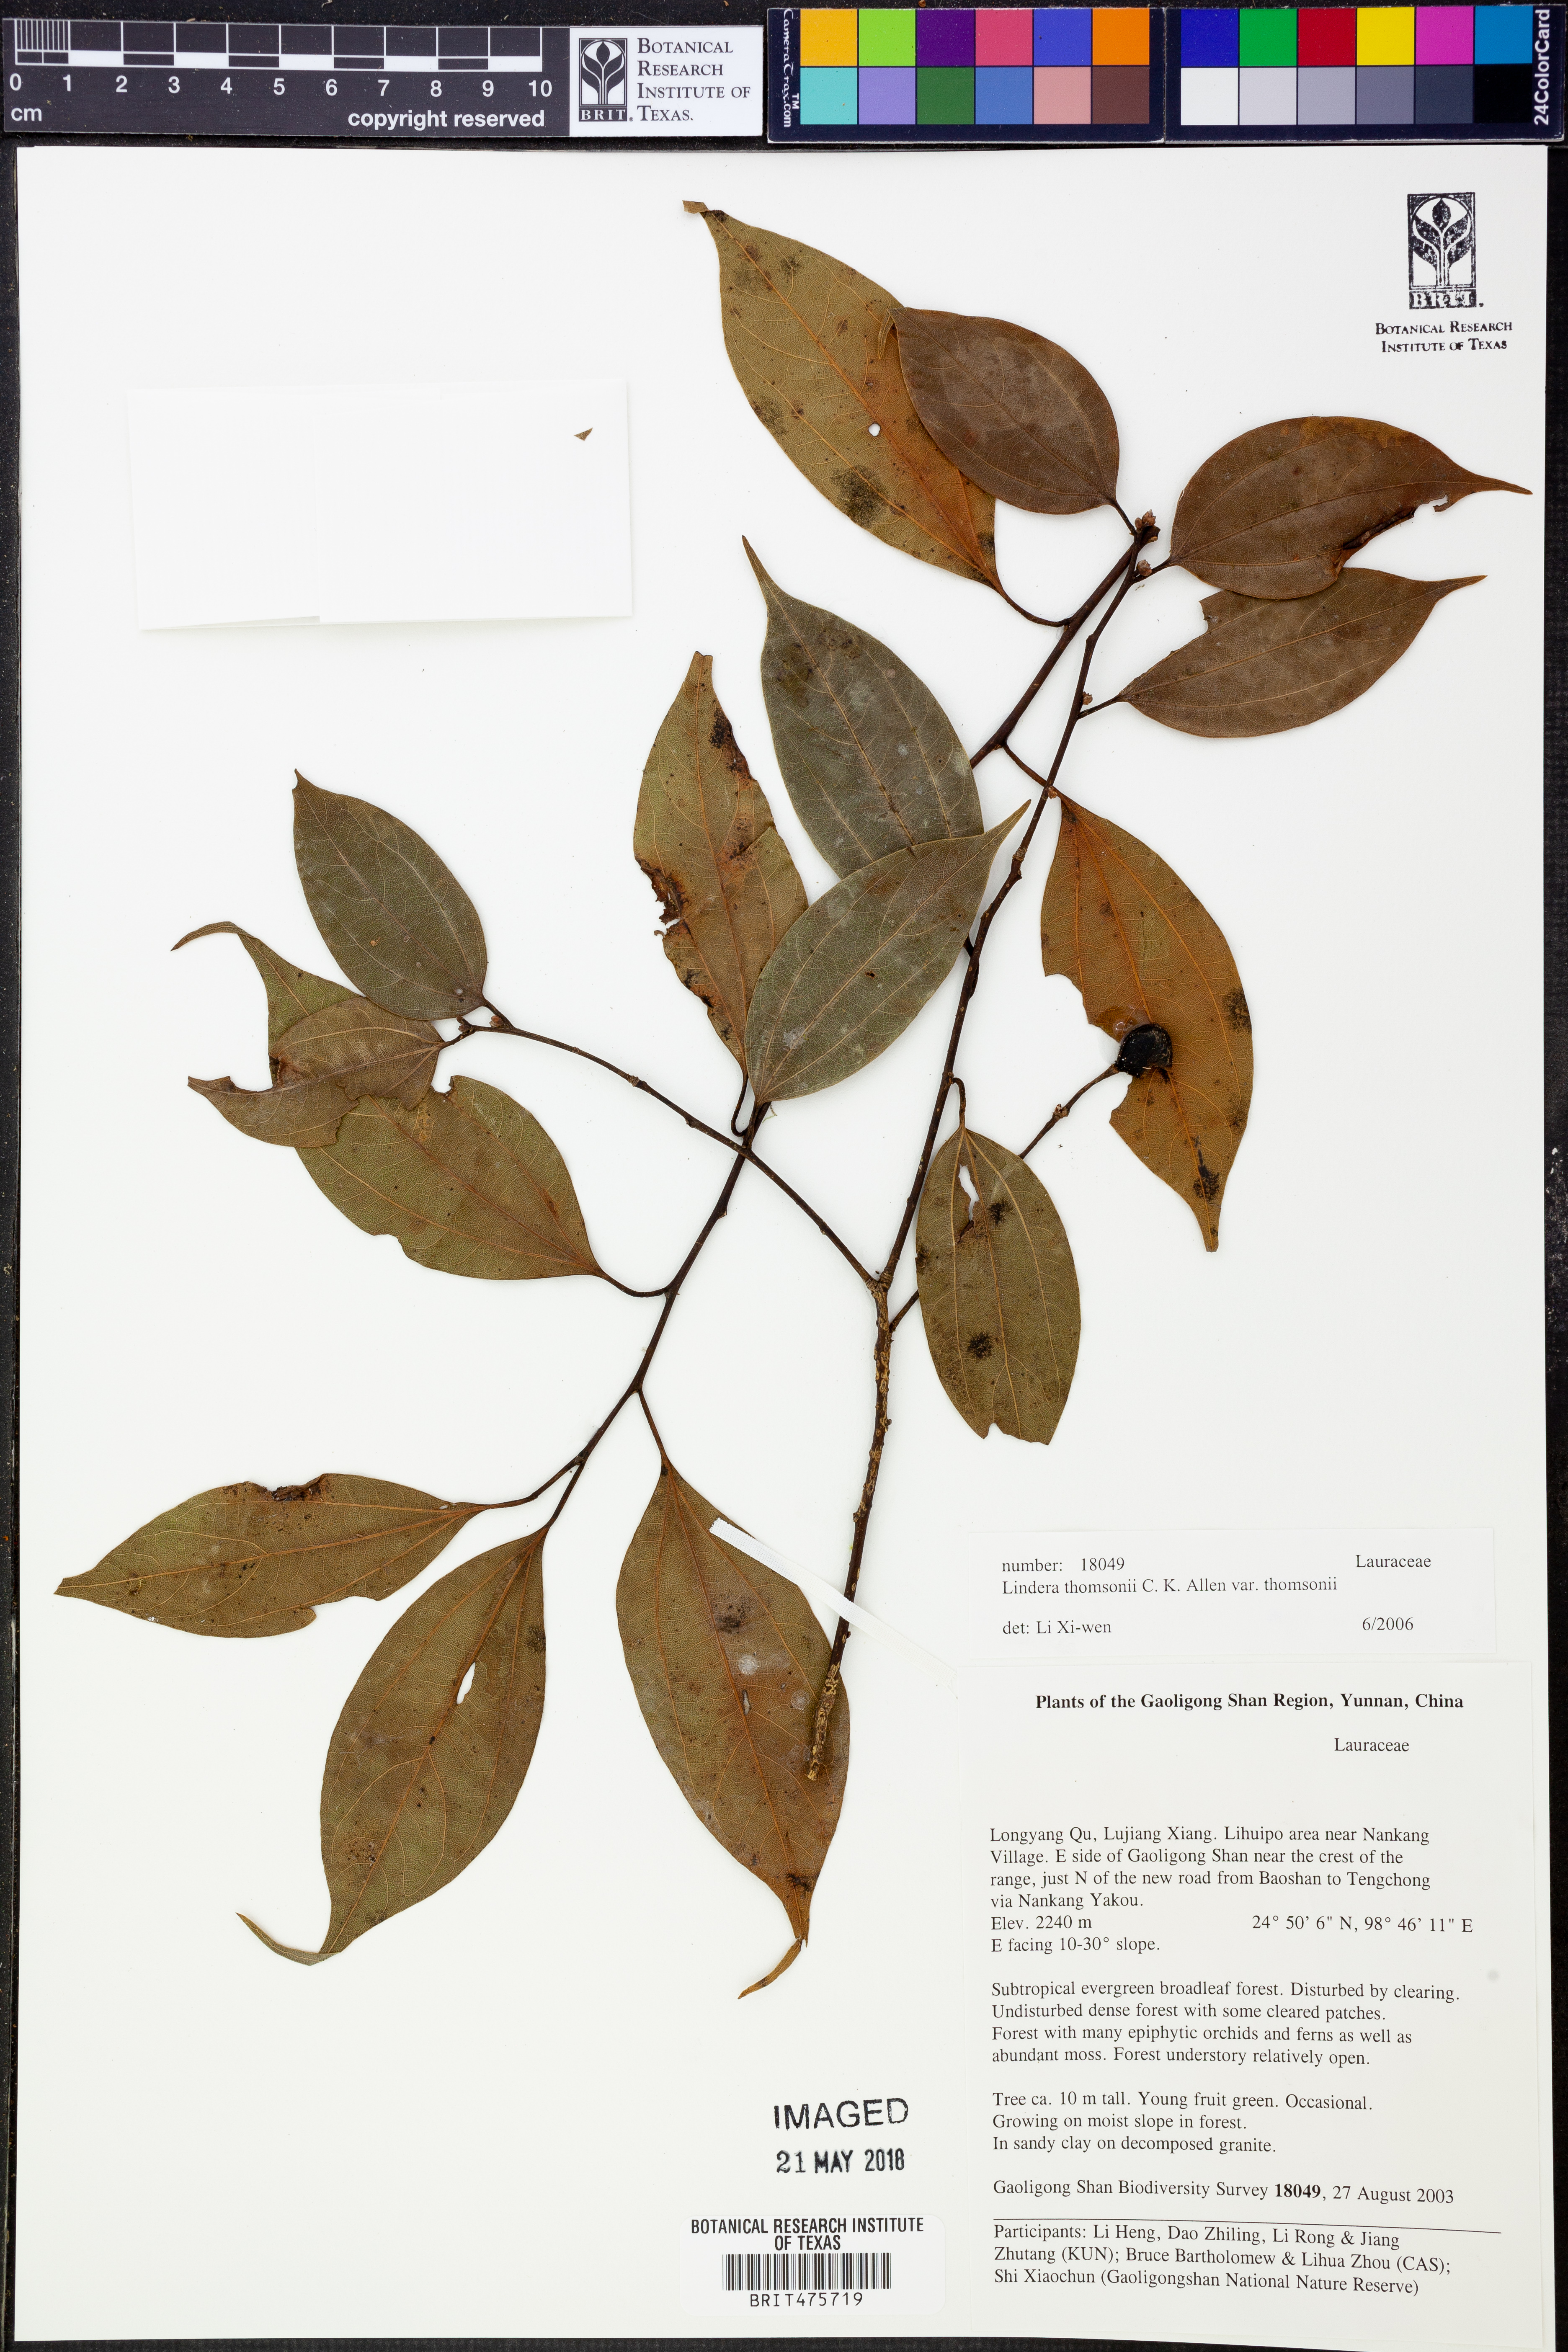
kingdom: Plantae
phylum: Tracheophyta
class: Magnoliopsida
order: Laurales
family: Lauraceae
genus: Lindera
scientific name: Lindera thomsonii
